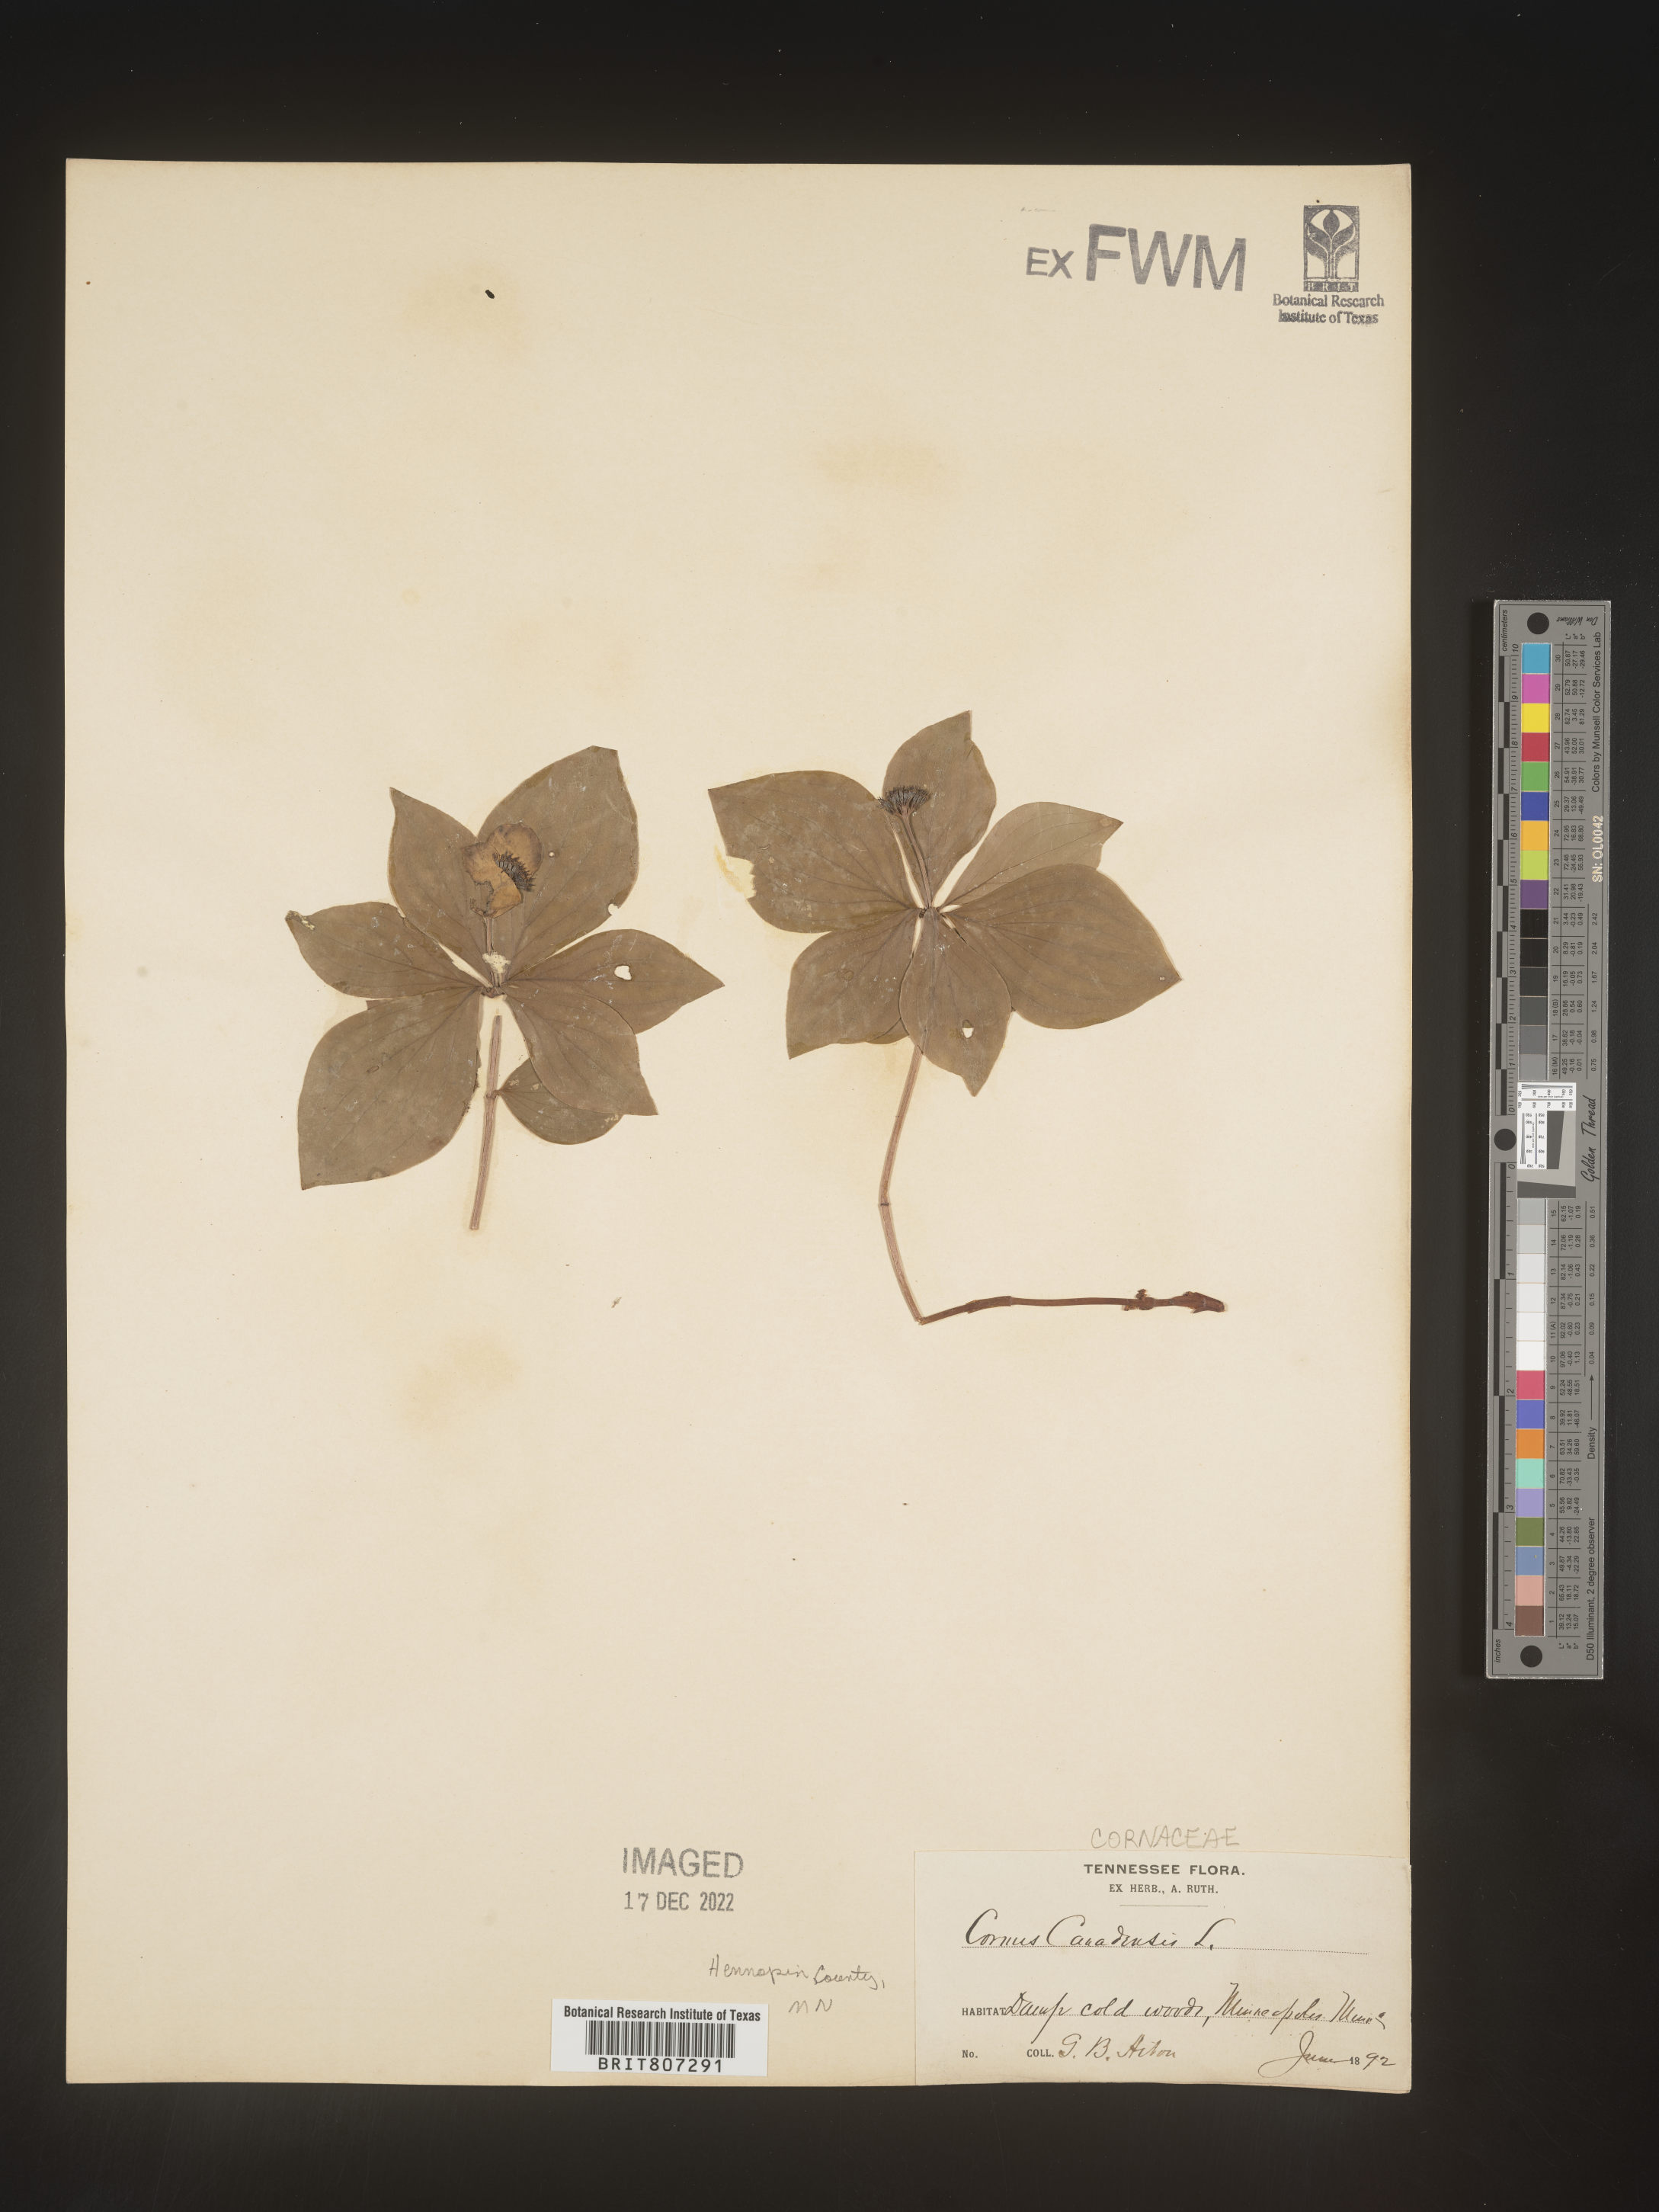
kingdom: Plantae
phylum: Tracheophyta
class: Magnoliopsida
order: Cornales
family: Cornaceae
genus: Cornus
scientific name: Cornus canadensis
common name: Creeping dogwood
